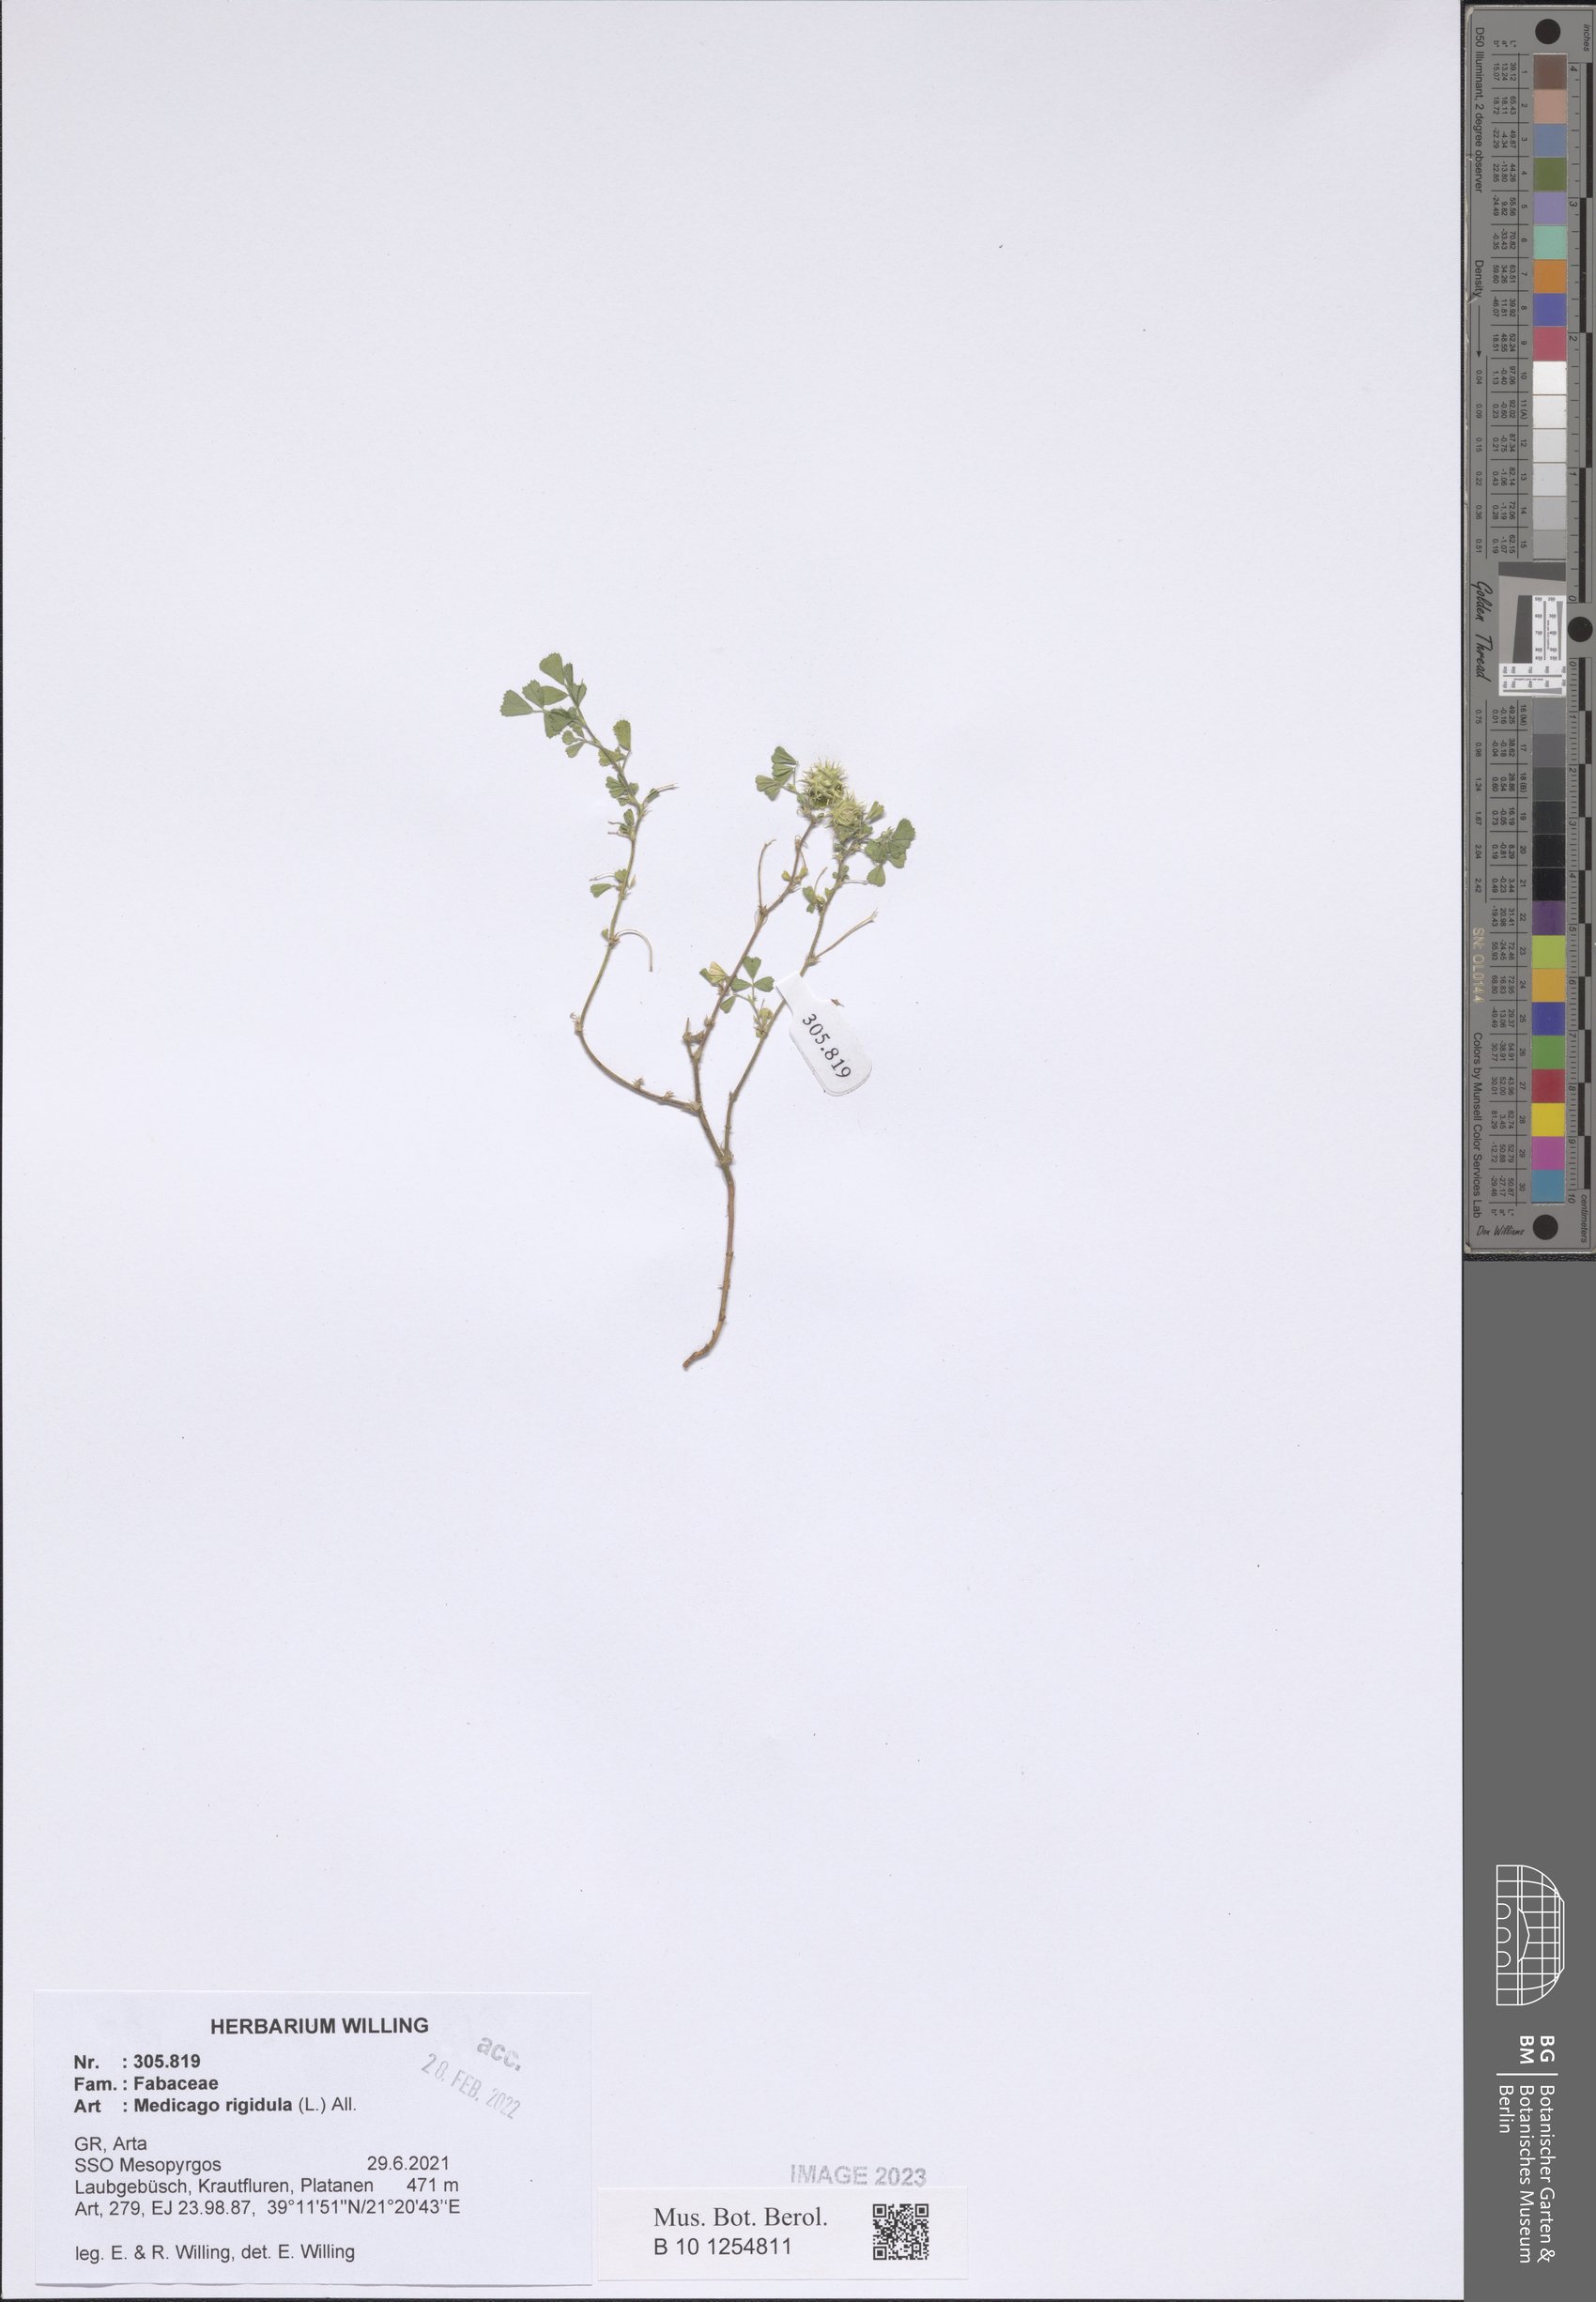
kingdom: Plantae
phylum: Tracheophyta
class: Magnoliopsida
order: Fabales
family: Fabaceae
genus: Medicago
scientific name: Medicago rigidula
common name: Tifton medic
